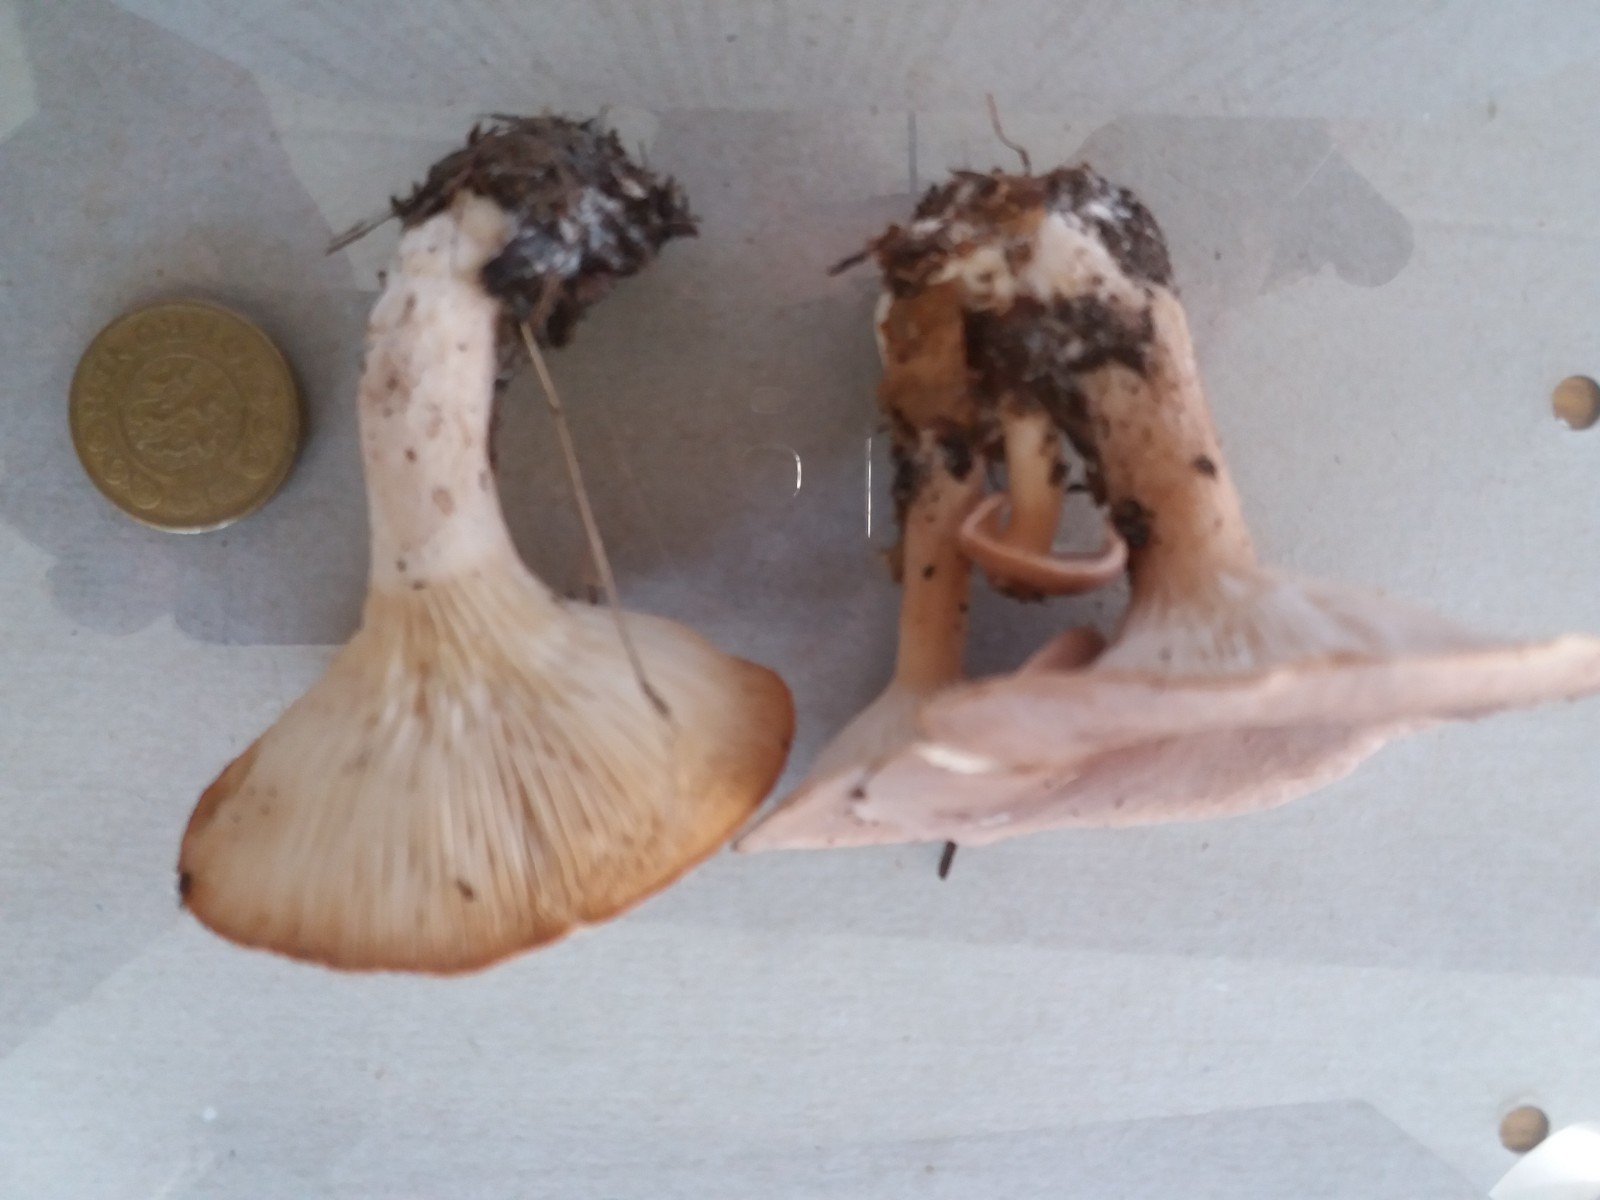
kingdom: Fungi
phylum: Basidiomycota
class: Agaricomycetes
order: Agaricales
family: Tricholomataceae
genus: Infundibulicybe
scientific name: Infundibulicybe gibba
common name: almindelig tragthat
